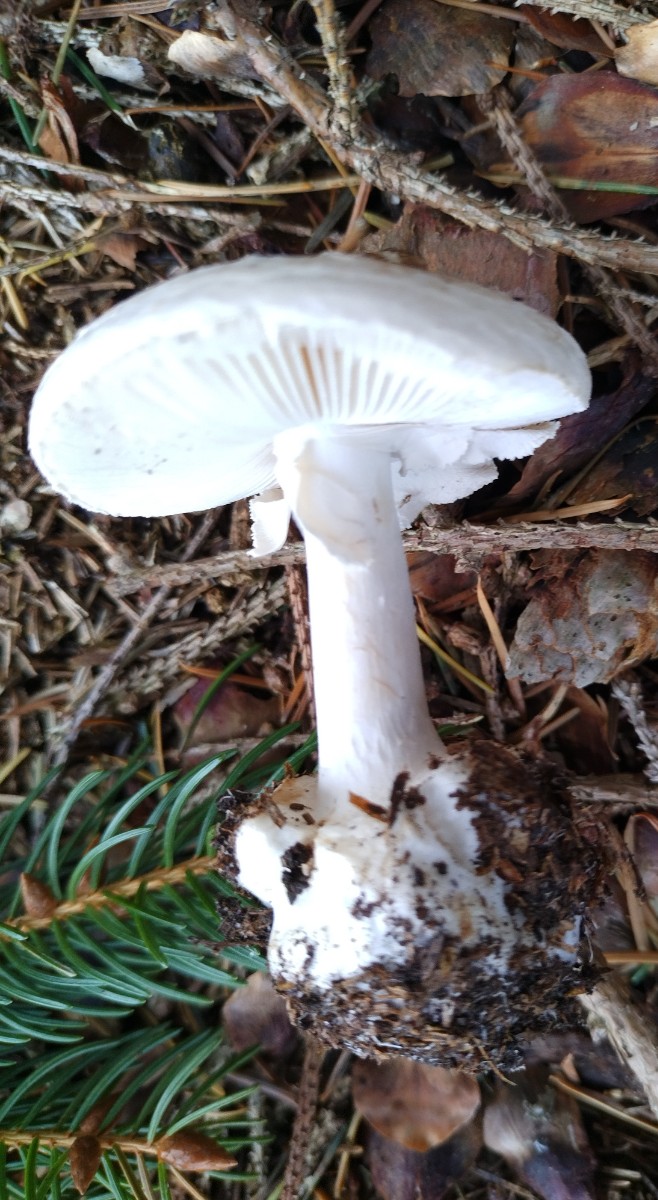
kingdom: Fungi
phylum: Basidiomycota
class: Agaricomycetes
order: Agaricales
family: Amanitaceae
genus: Amanita
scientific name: Amanita porphyria
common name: porfyr-fluesvamp
